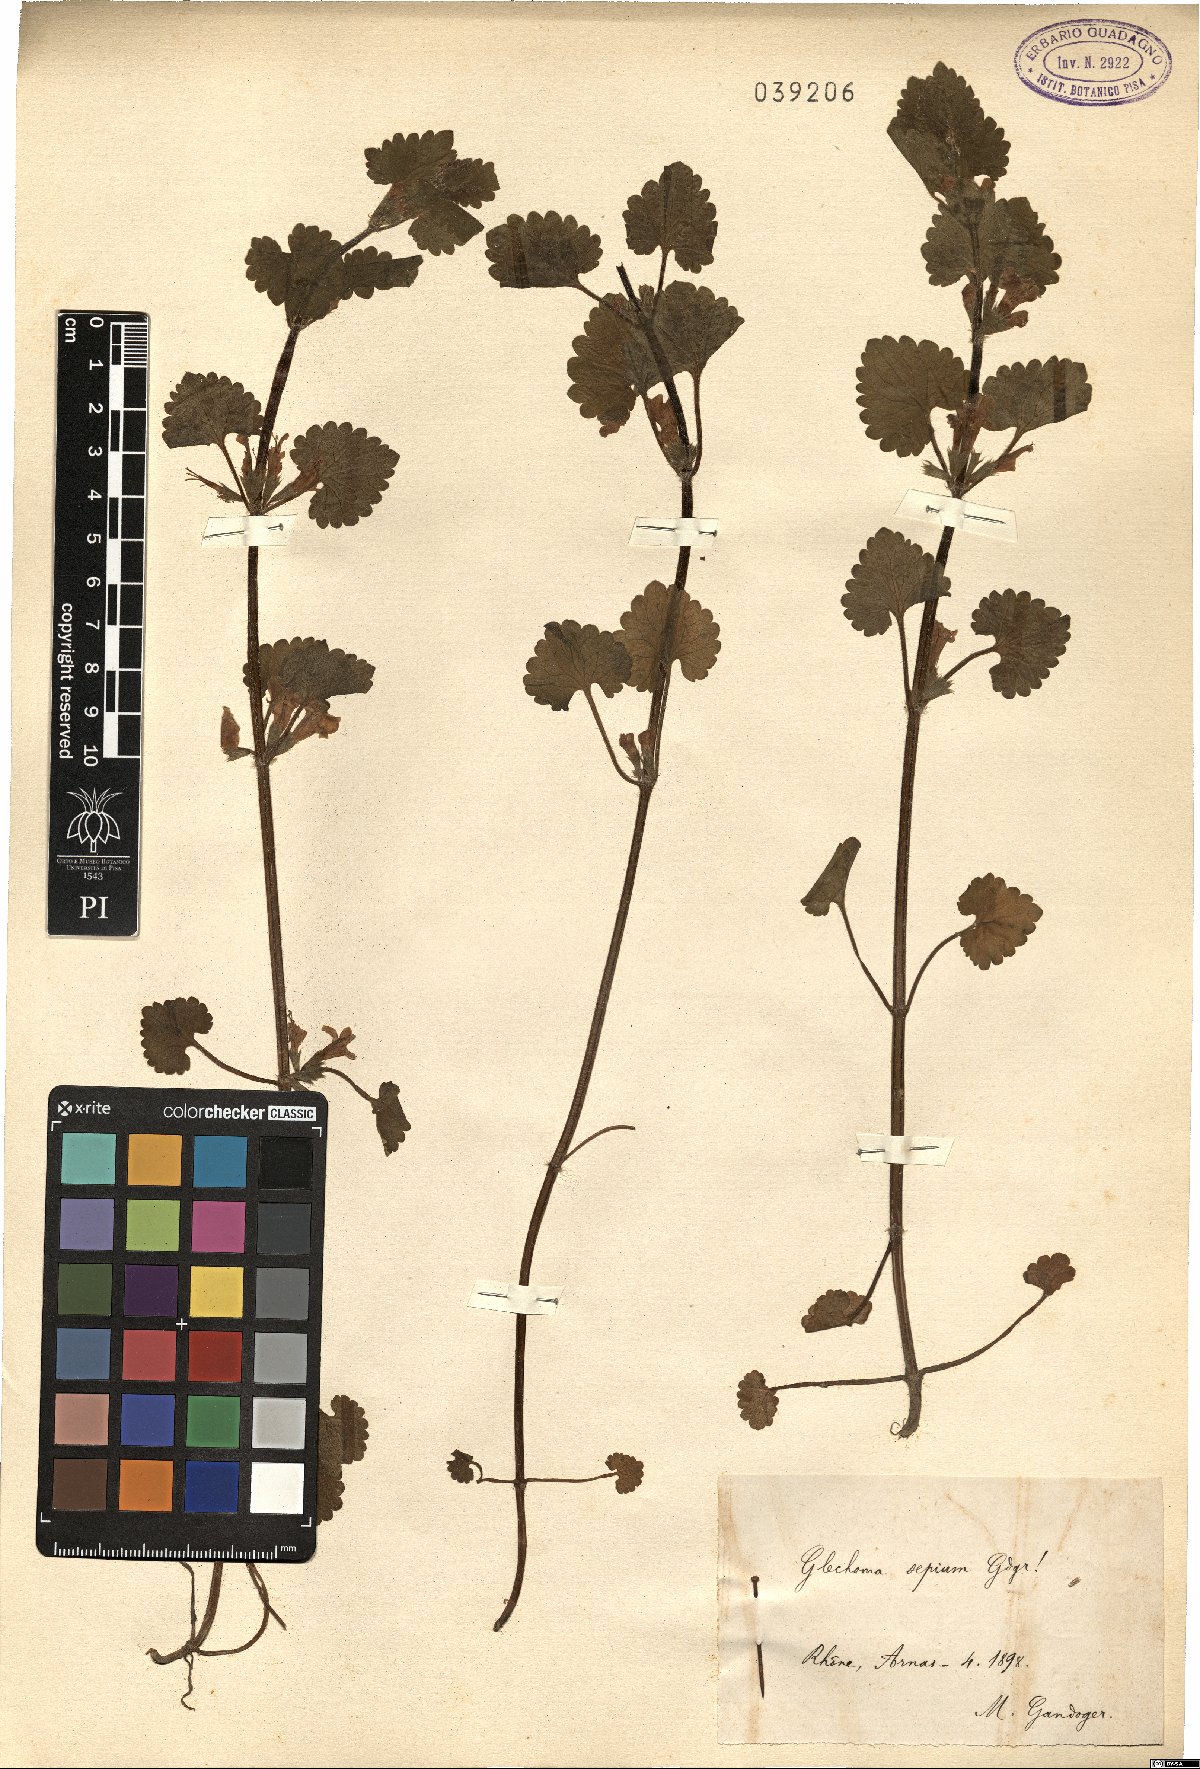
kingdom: Plantae
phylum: Tracheophyta
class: Magnoliopsida
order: Lamiales
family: Lamiaceae
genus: Nepeta
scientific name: Nepeta supina
